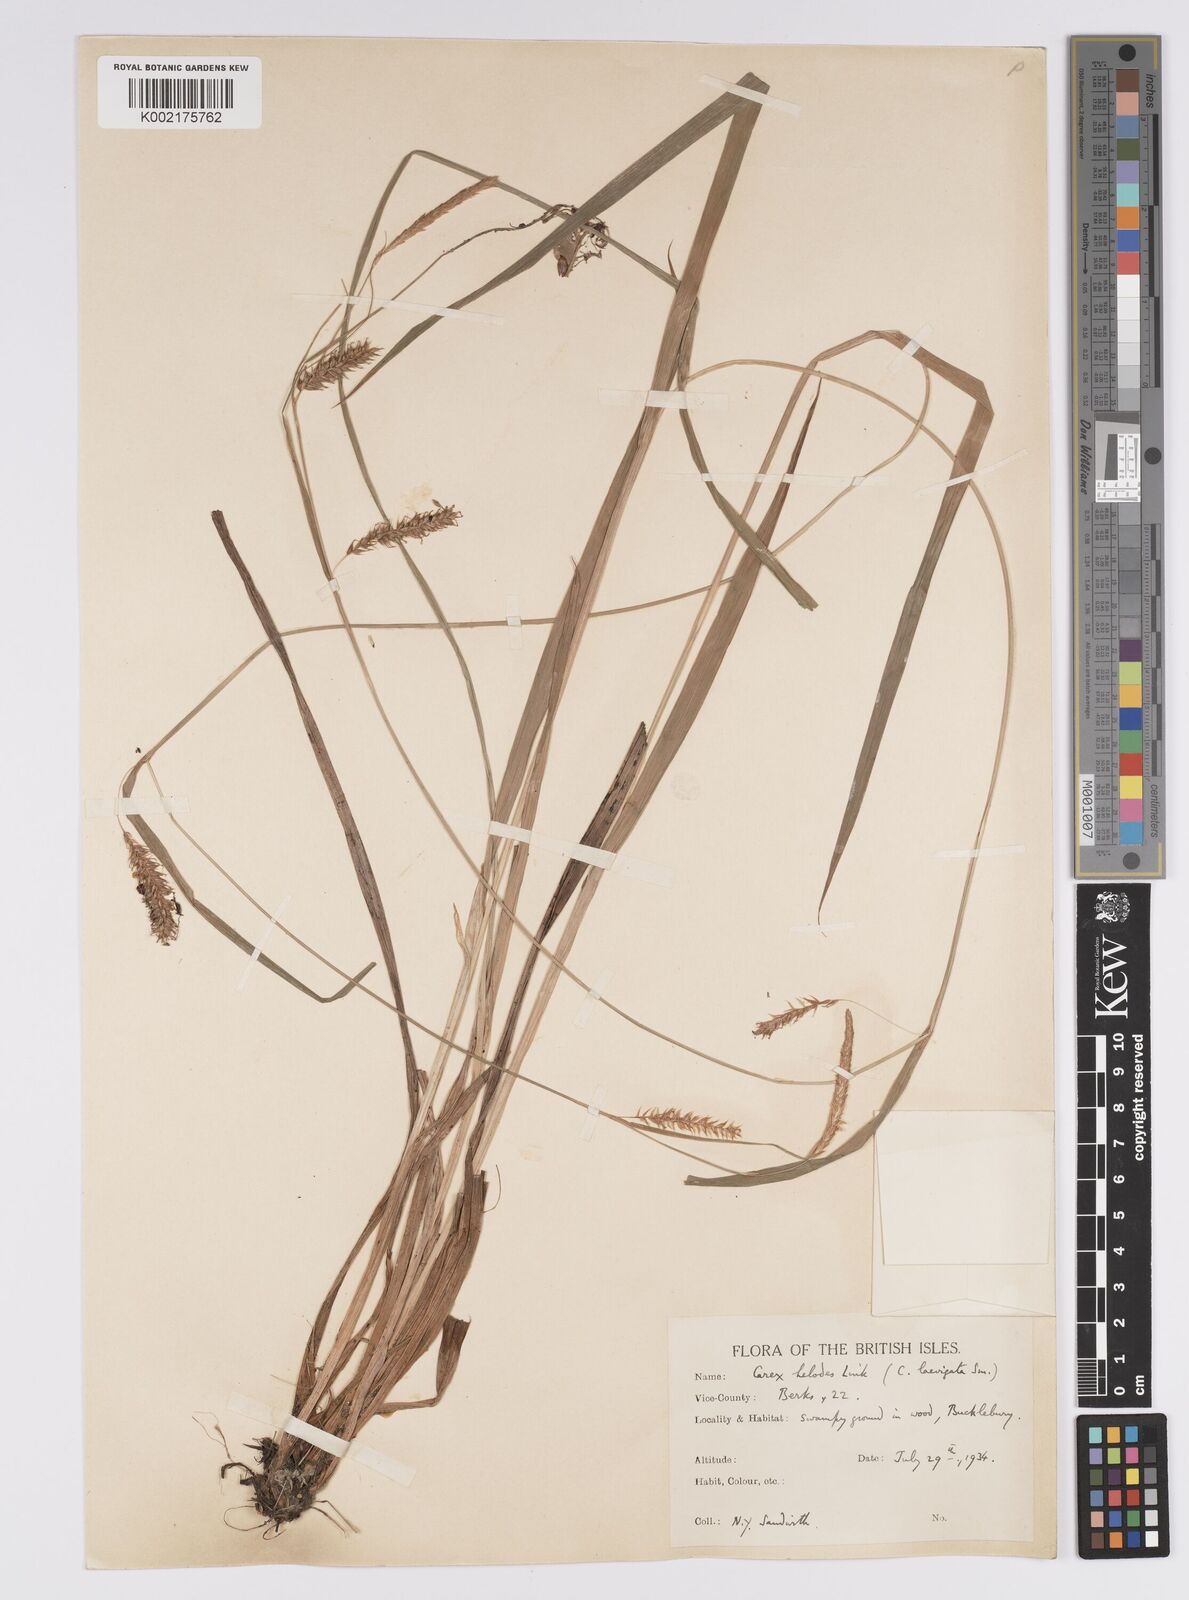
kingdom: Plantae
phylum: Tracheophyta
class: Liliopsida
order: Poales
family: Cyperaceae
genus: Carex
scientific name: Carex laevigata
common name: Smooth-stalked sedge
